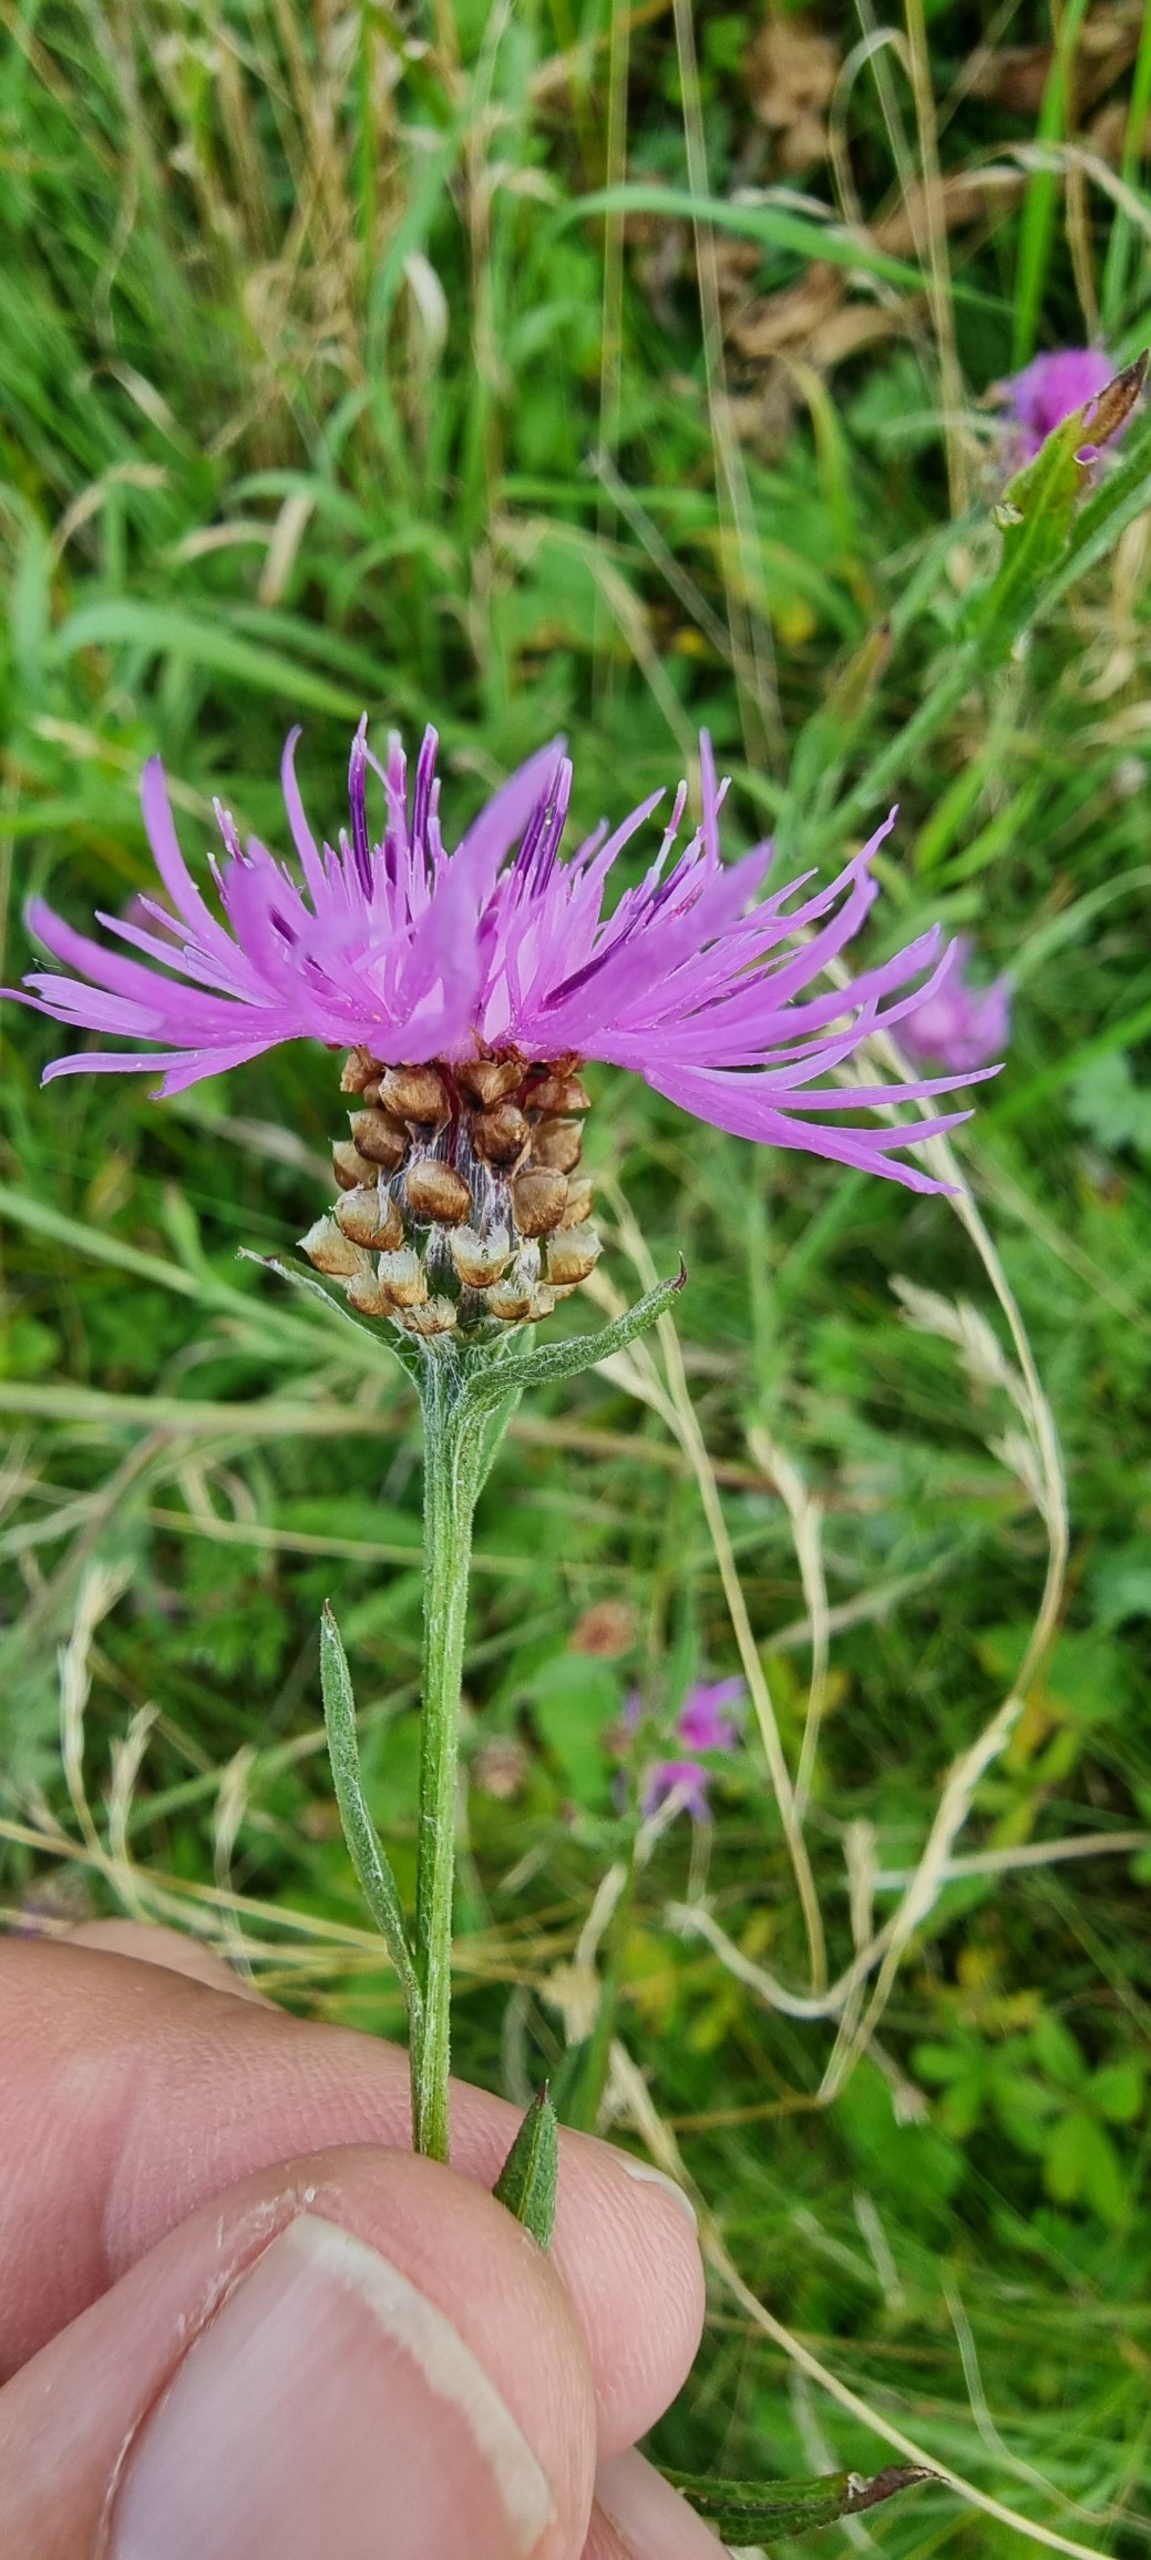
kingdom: Plantae
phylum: Tracheophyta
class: Magnoliopsida
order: Asterales
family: Asteraceae
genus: Centaurea
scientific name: Centaurea jacea
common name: Almindelig knopurt
